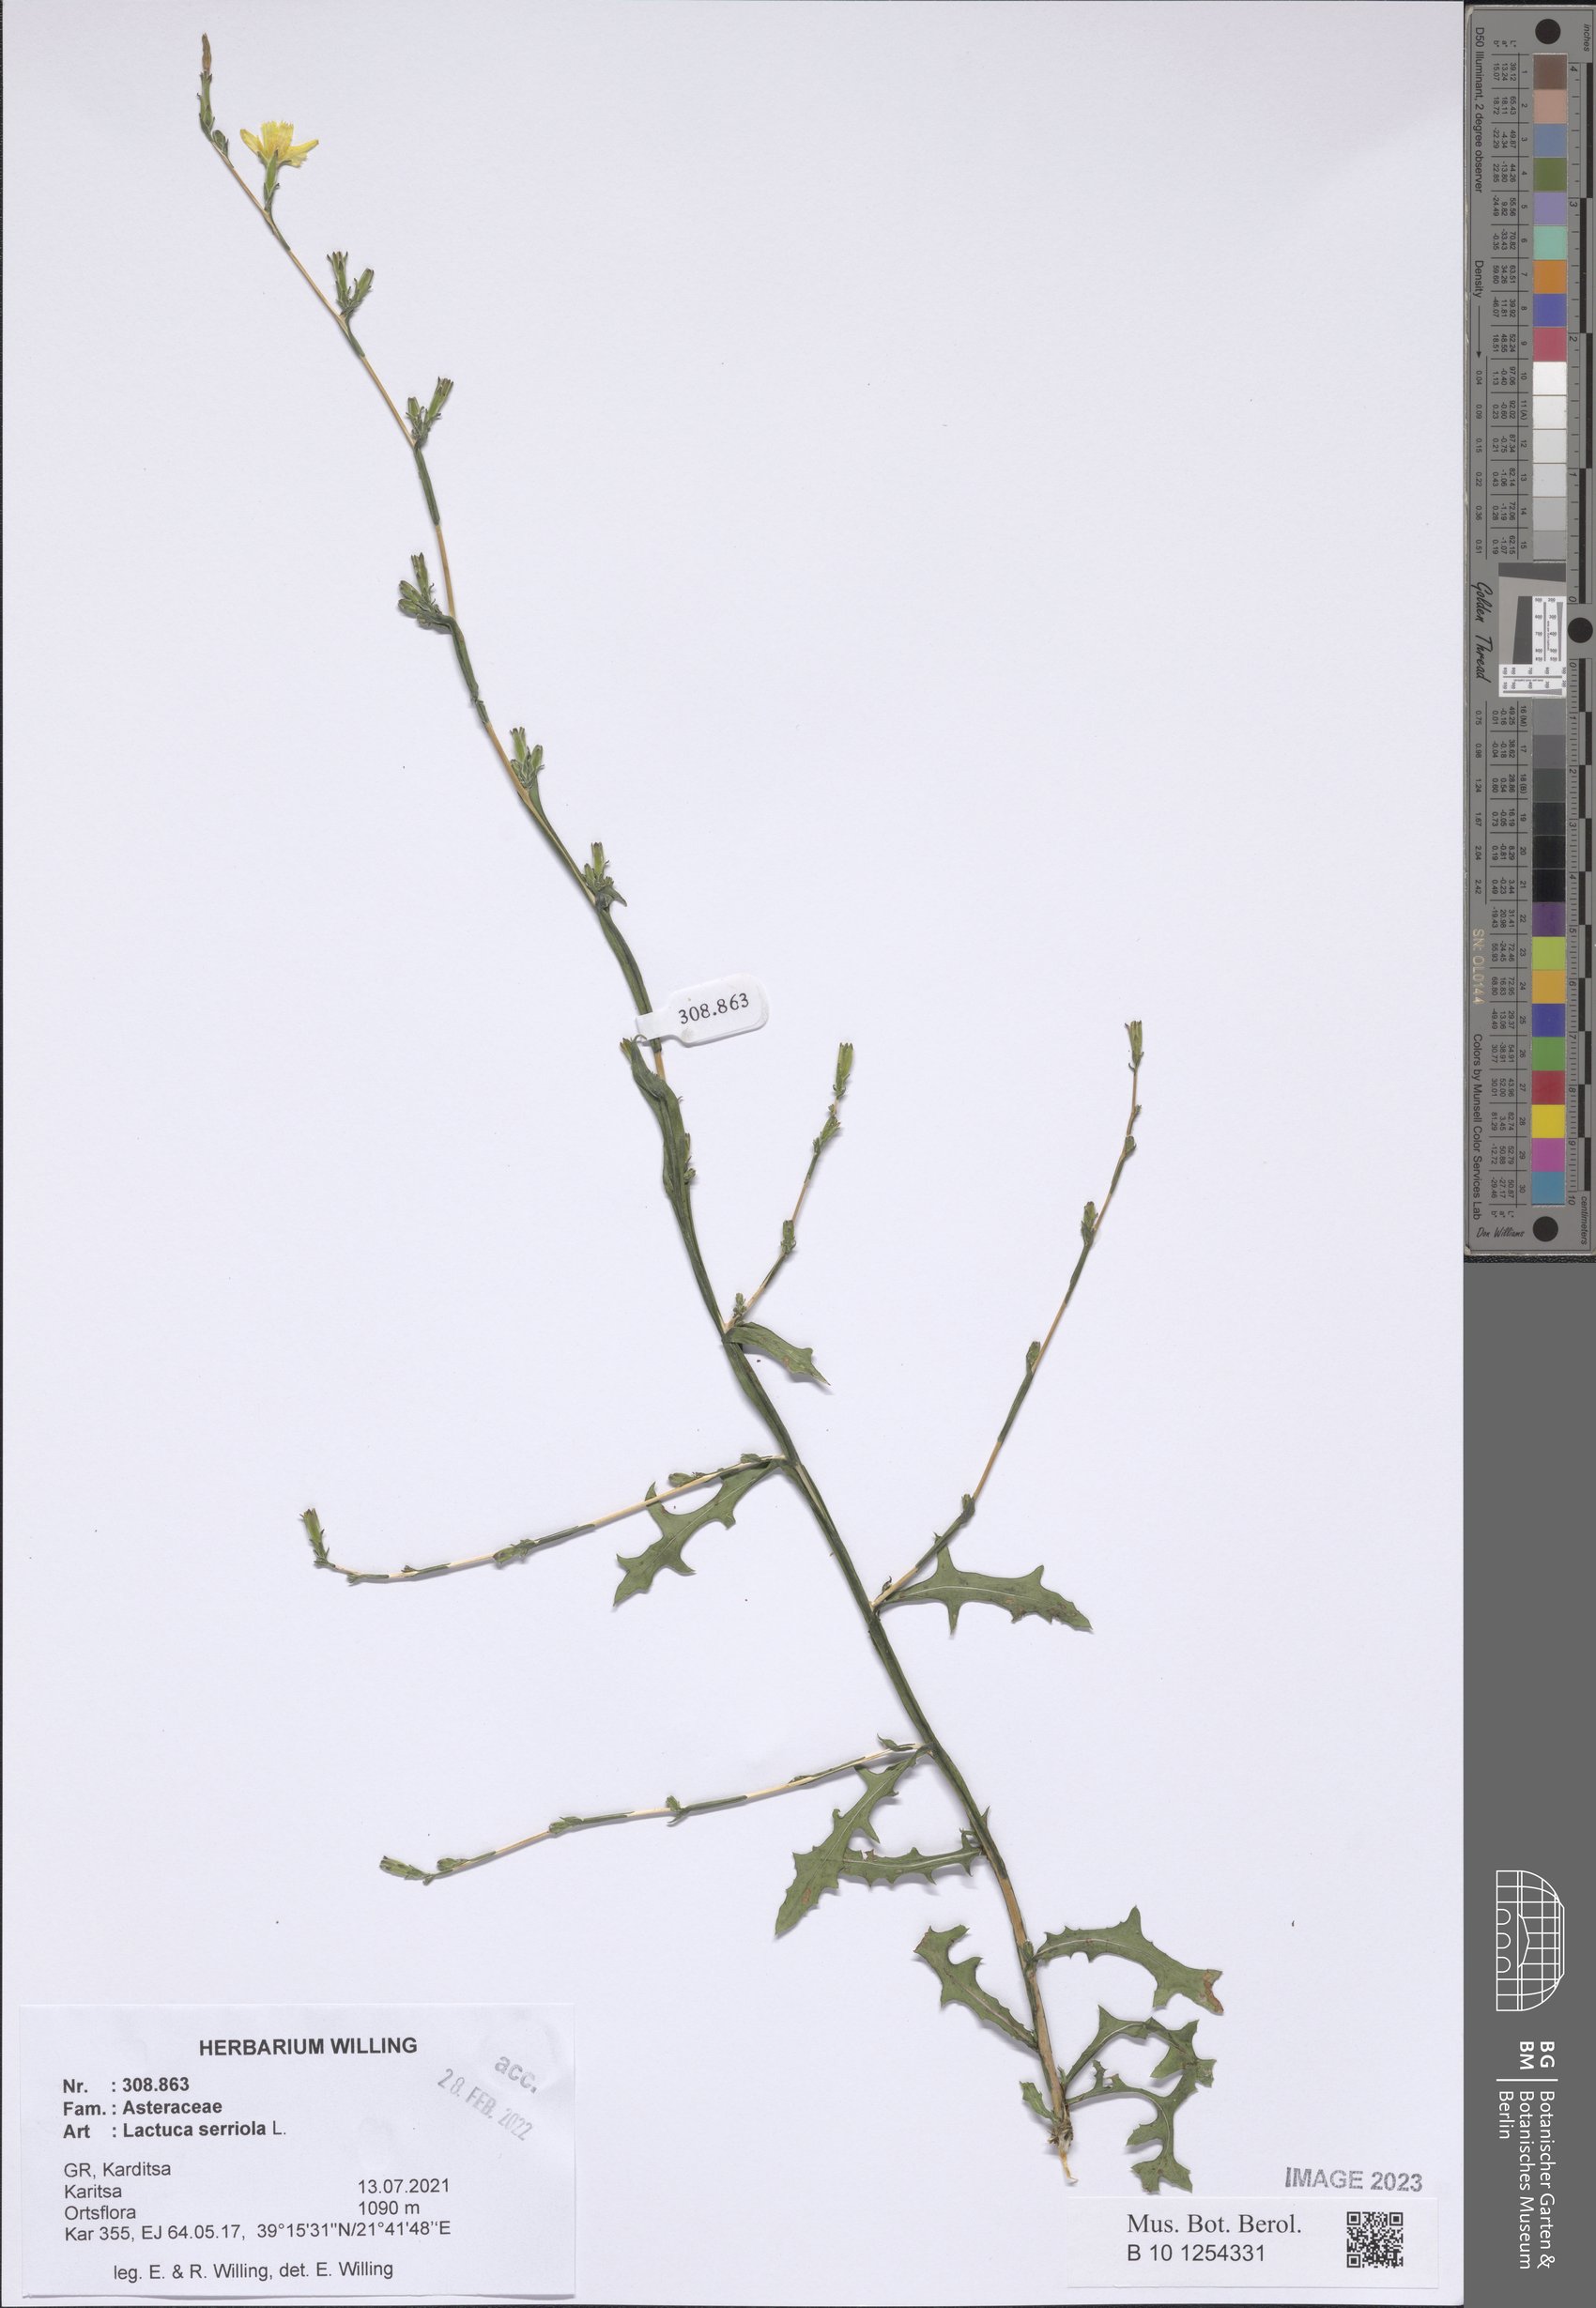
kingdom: Plantae
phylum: Tracheophyta
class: Magnoliopsida
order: Asterales
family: Asteraceae
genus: Lactuca
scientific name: Lactuca serriola
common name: Prickly lettuce
